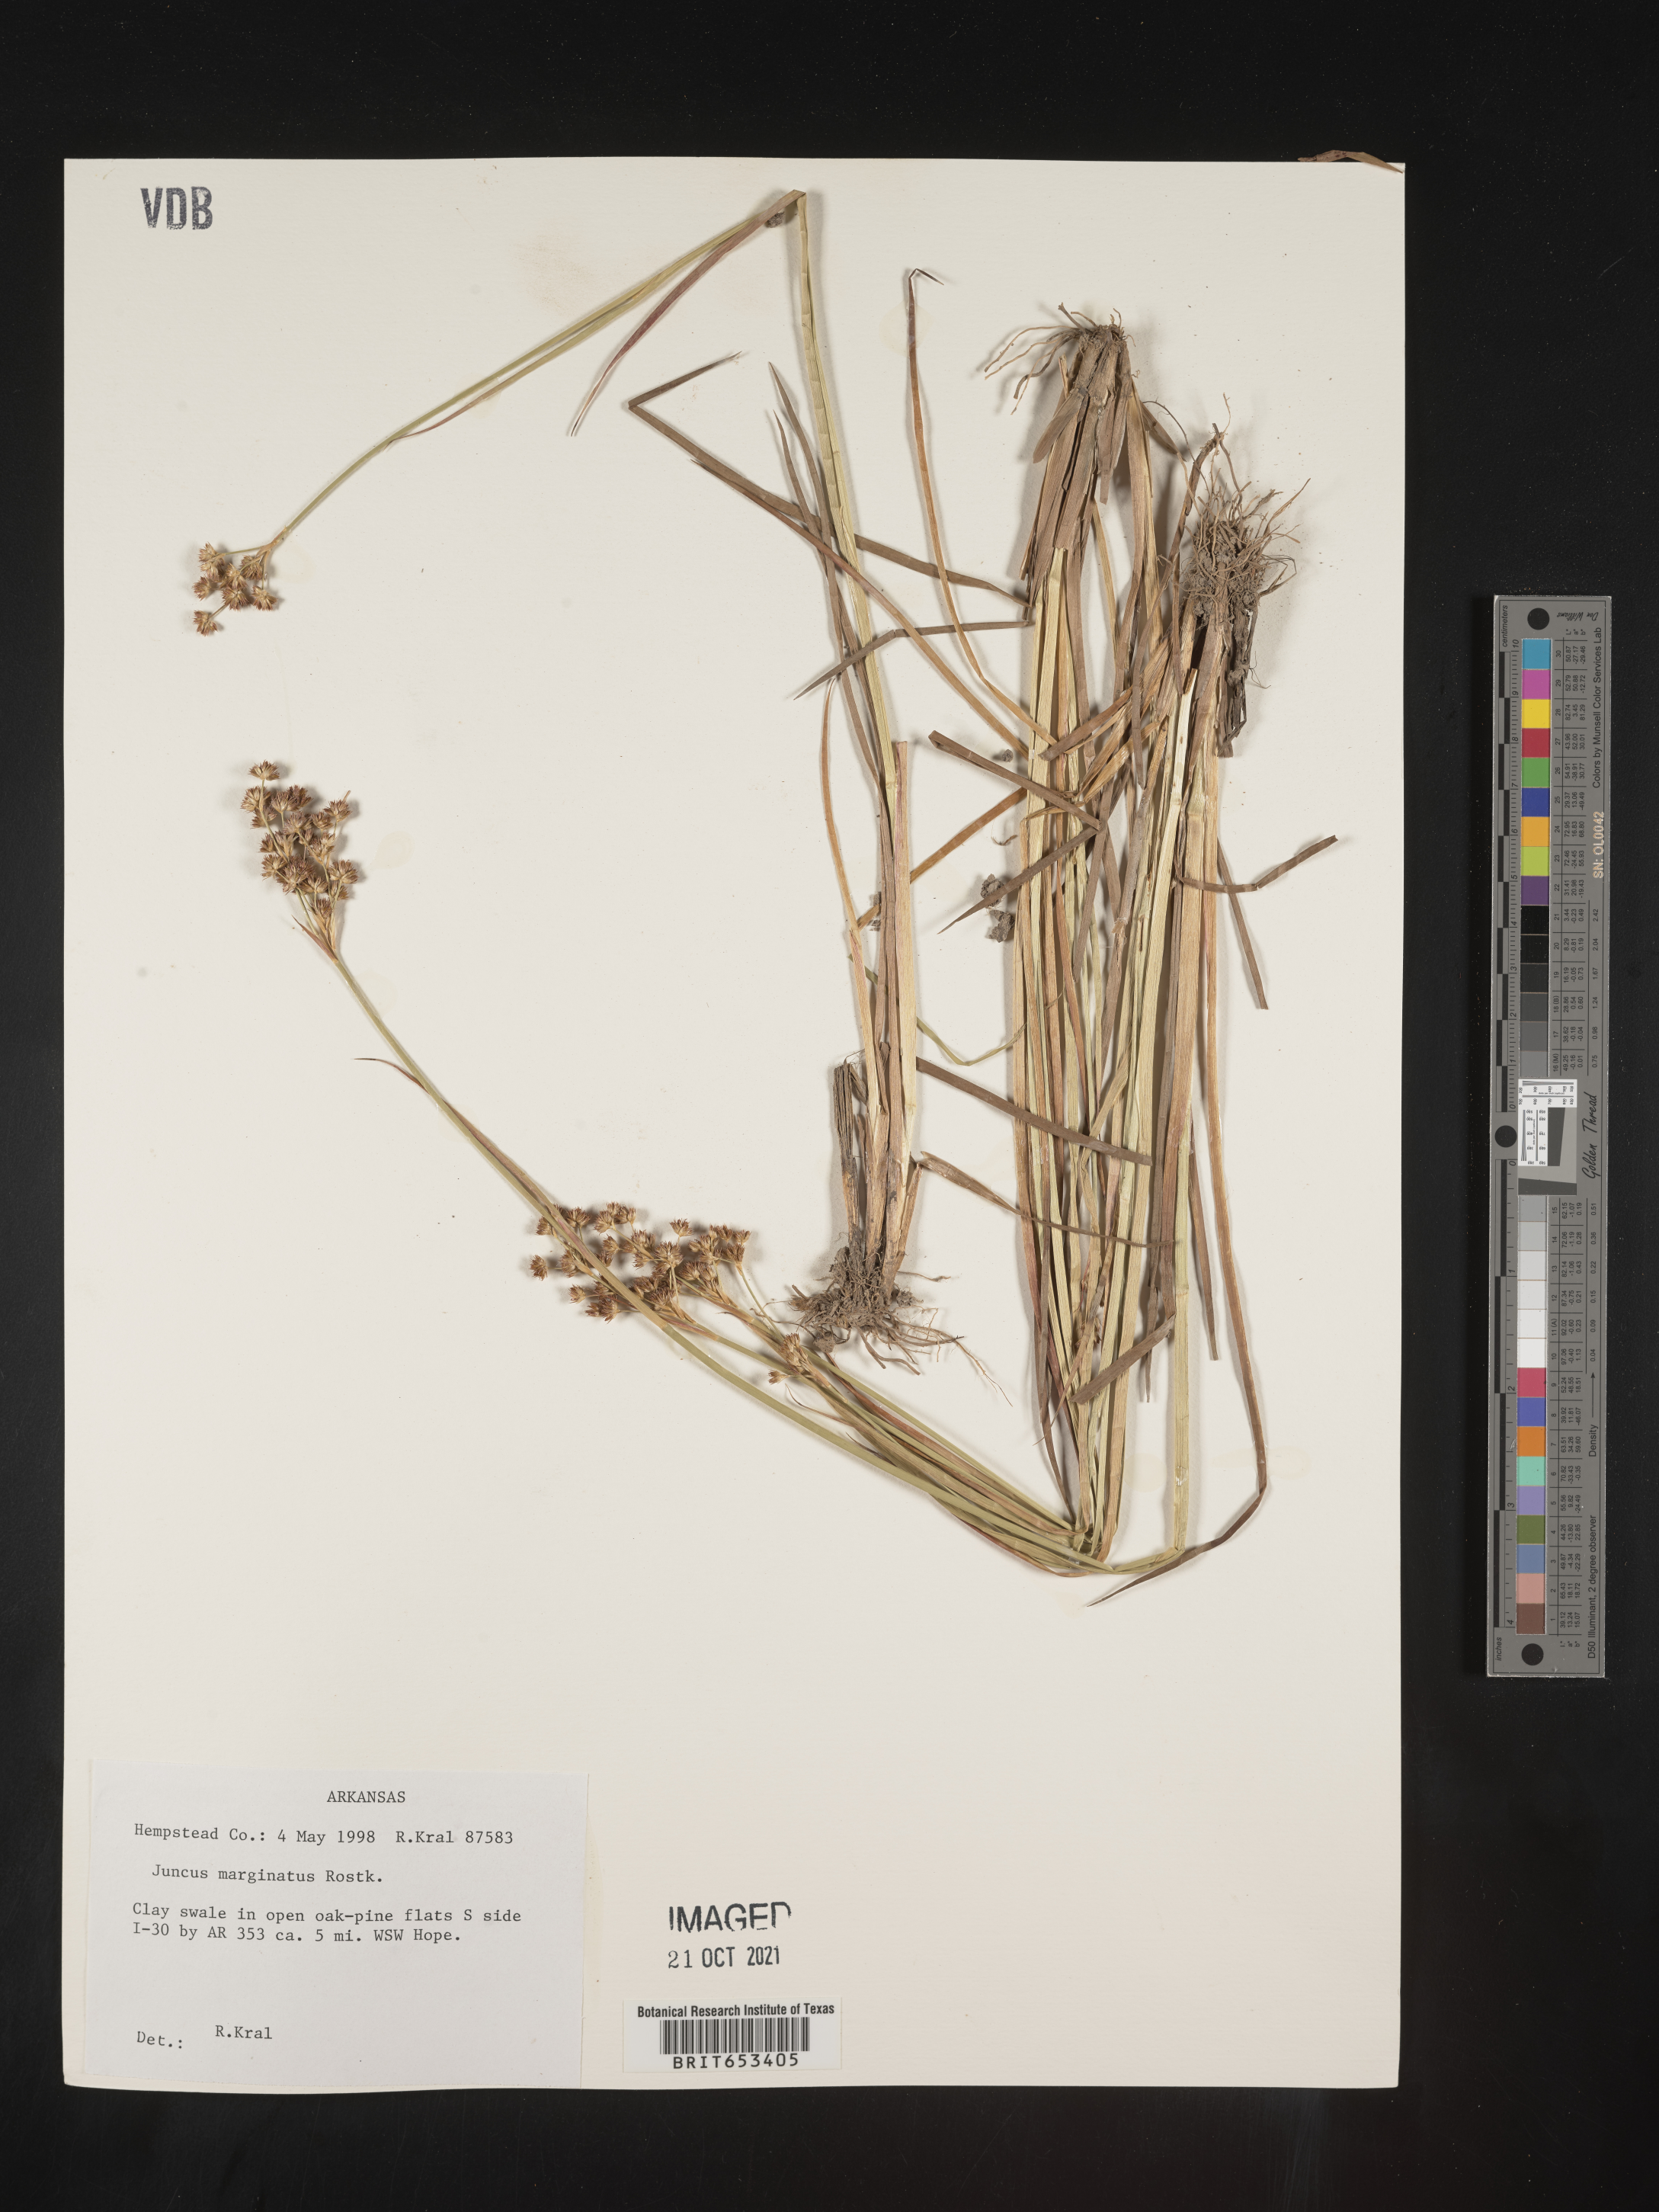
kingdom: Plantae
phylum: Tracheophyta
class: Liliopsida
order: Poales
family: Juncaceae
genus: Juncus
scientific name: Juncus marginatus
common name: Grass-leaf rush
